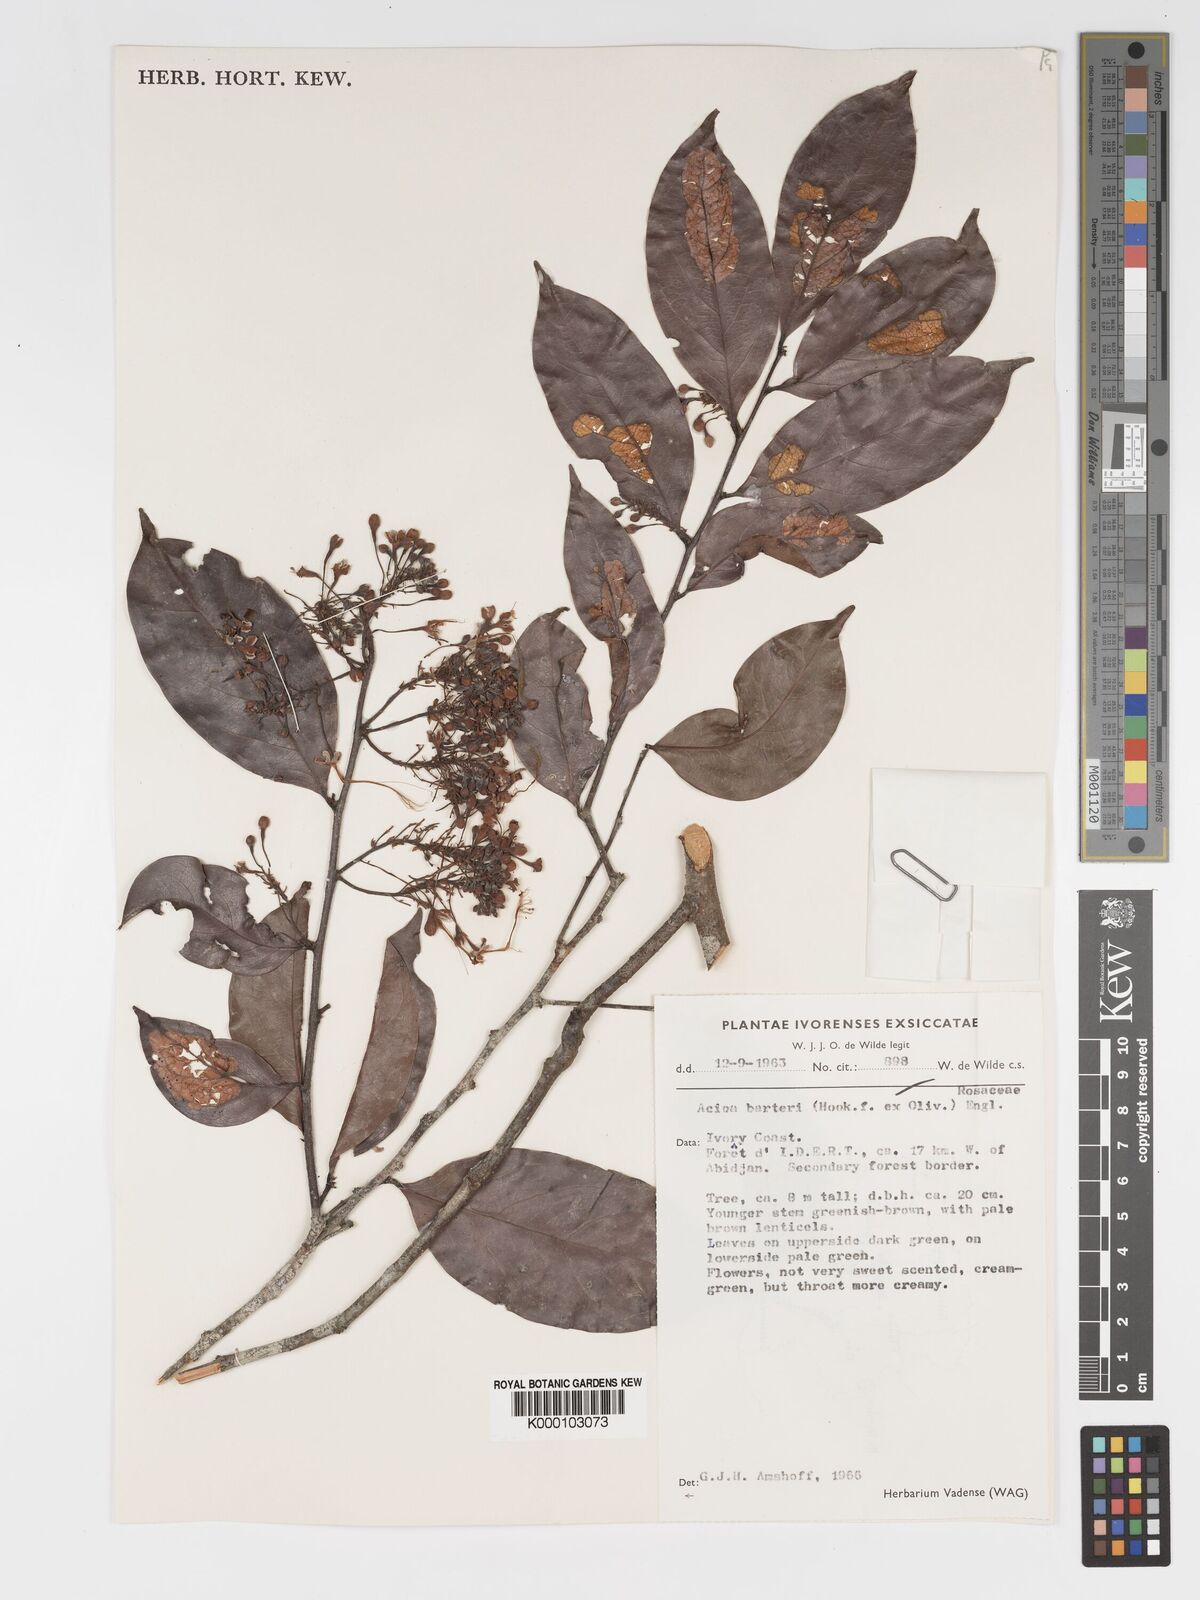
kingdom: Plantae
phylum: Tracheophyta
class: Magnoliopsida
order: Malpighiales
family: Chrysobalanaceae
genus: Dactyladenia
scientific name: Dactyladenia barteri
